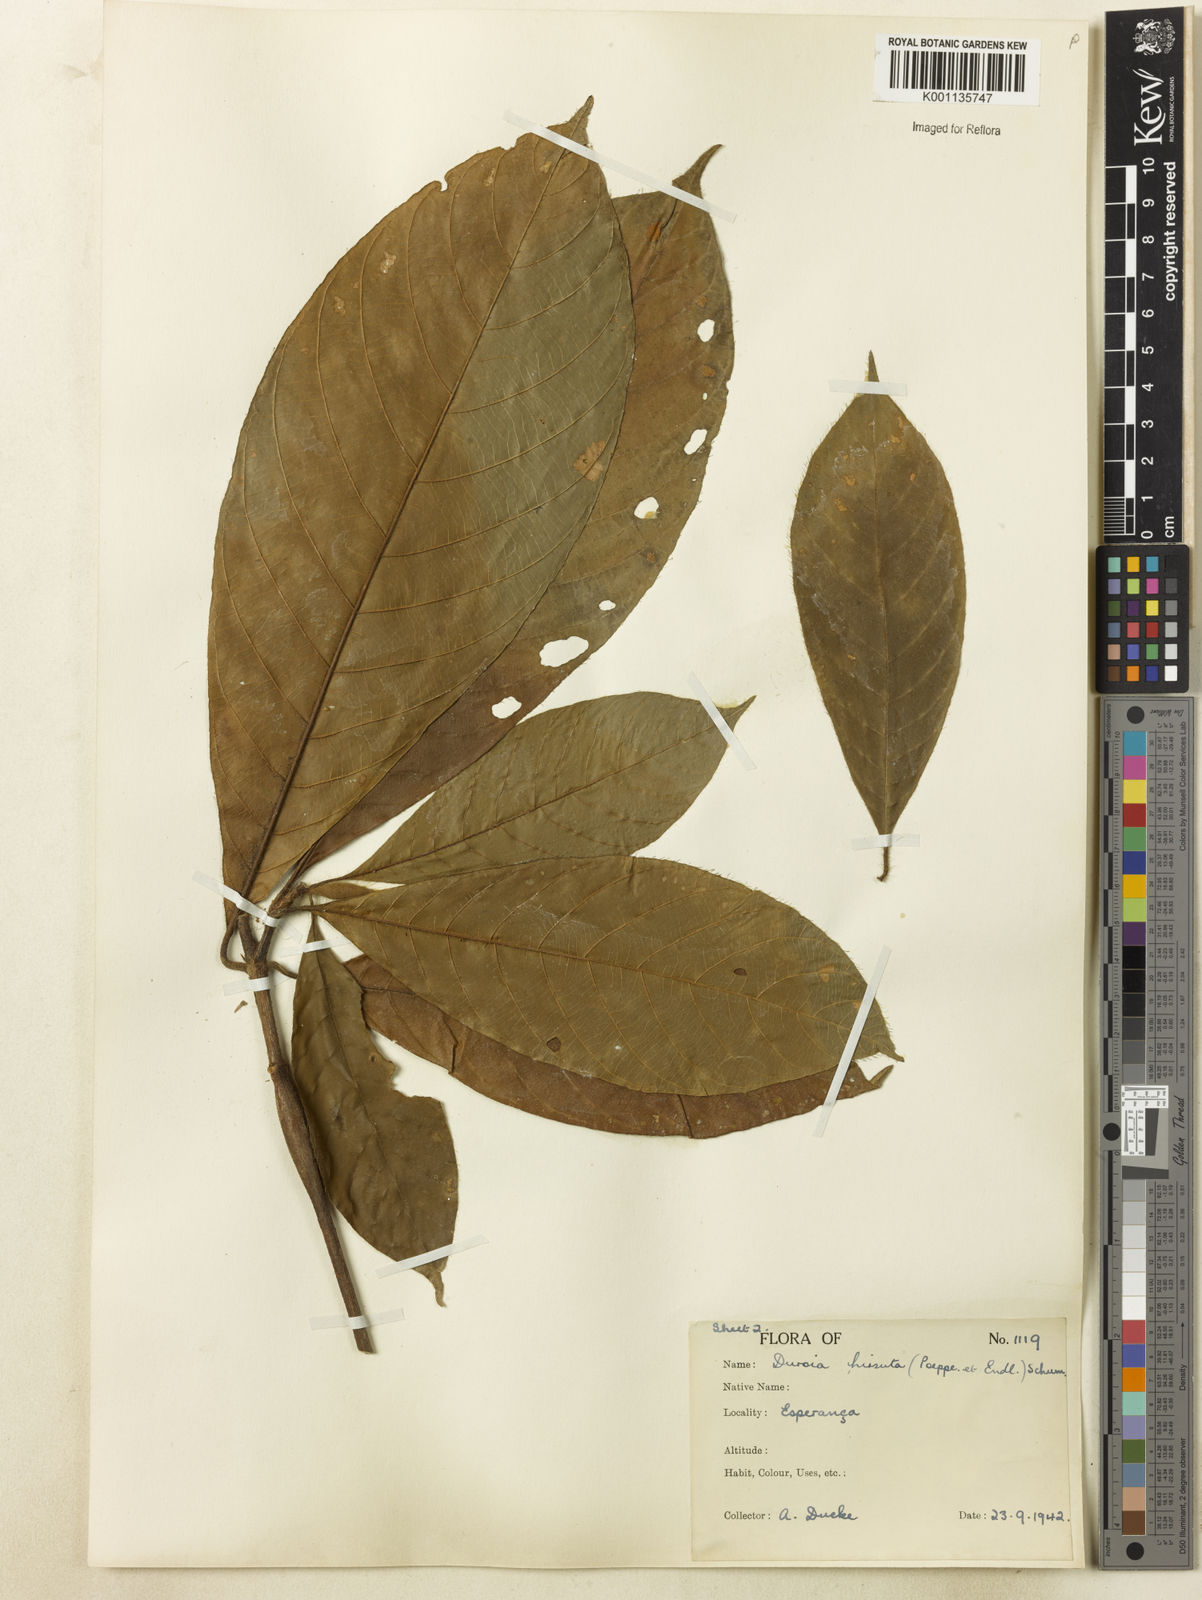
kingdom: Plantae
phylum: Tracheophyta
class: Magnoliopsida
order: Gentianales
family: Rubiaceae
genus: Duroia
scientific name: Duroia hirsuta
